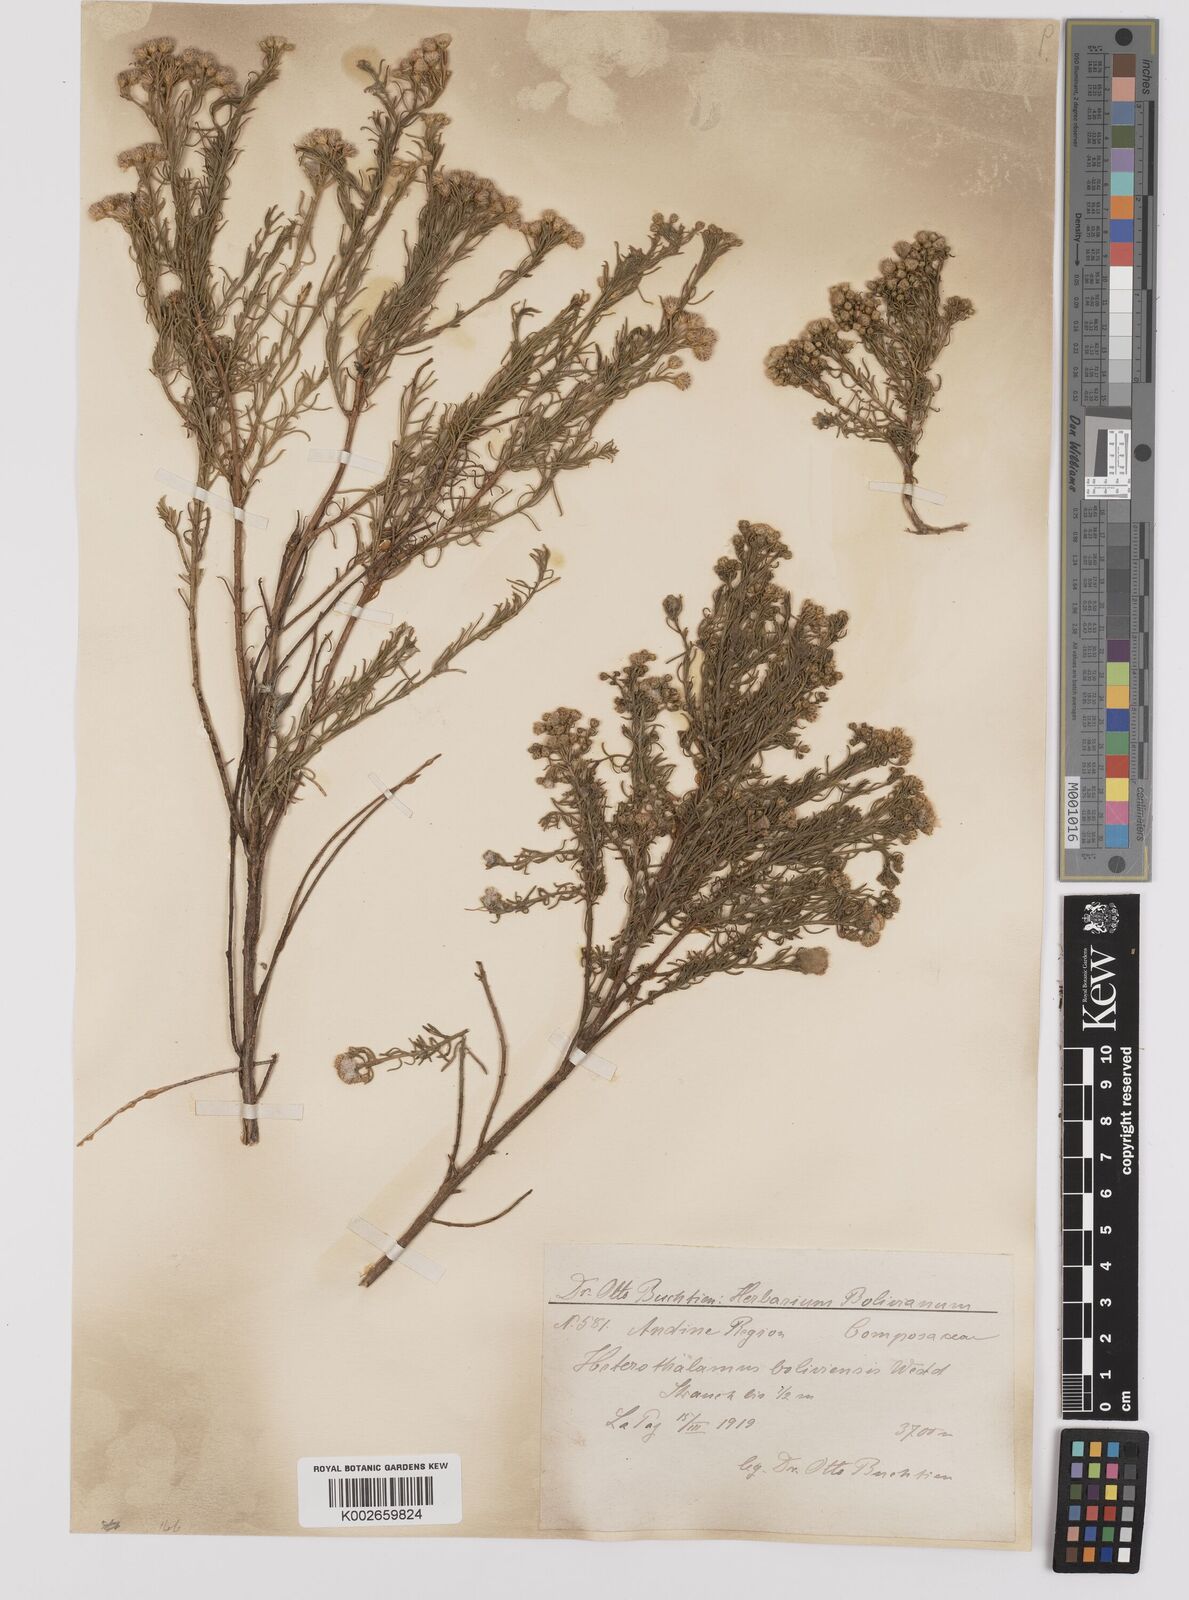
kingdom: Plantae
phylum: Tracheophyta
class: Magnoliopsida
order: Asterales
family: Asteraceae
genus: Baccharis
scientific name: Baccharis bolivensis
